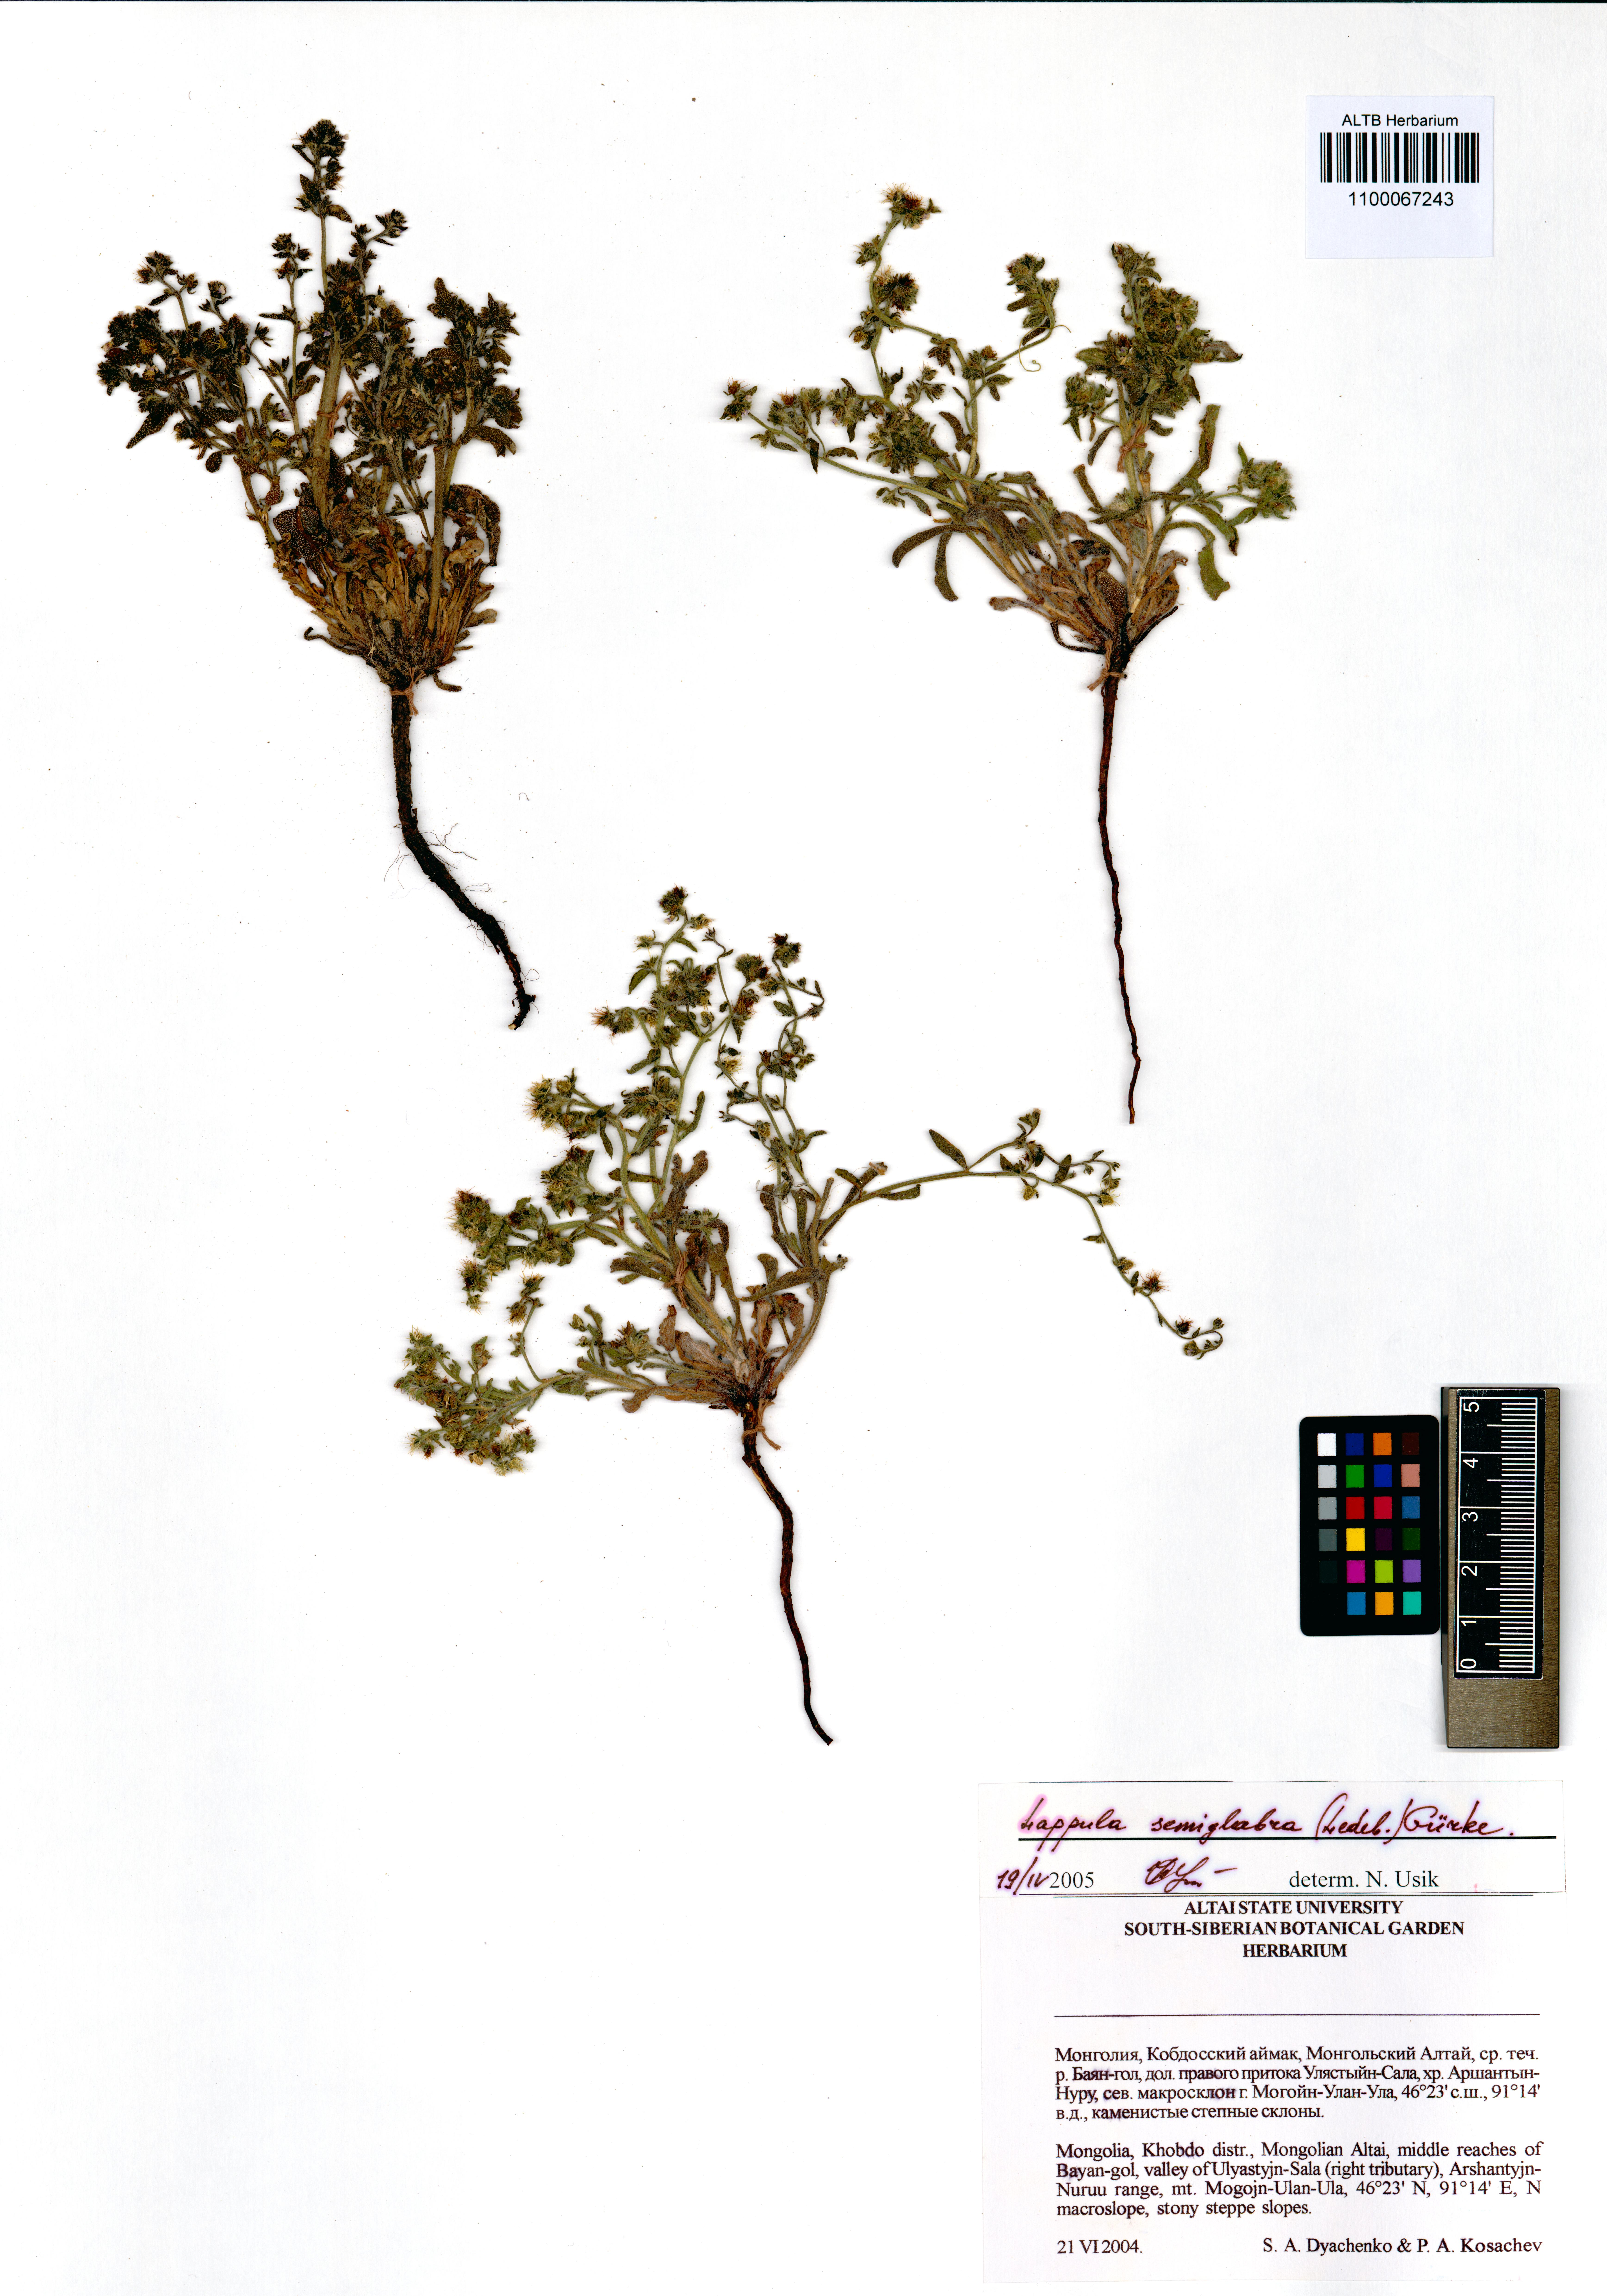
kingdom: Plantae
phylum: Tracheophyta
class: Magnoliopsida
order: Boraginales
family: Boraginaceae
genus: Lappula
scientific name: Lappula patula
